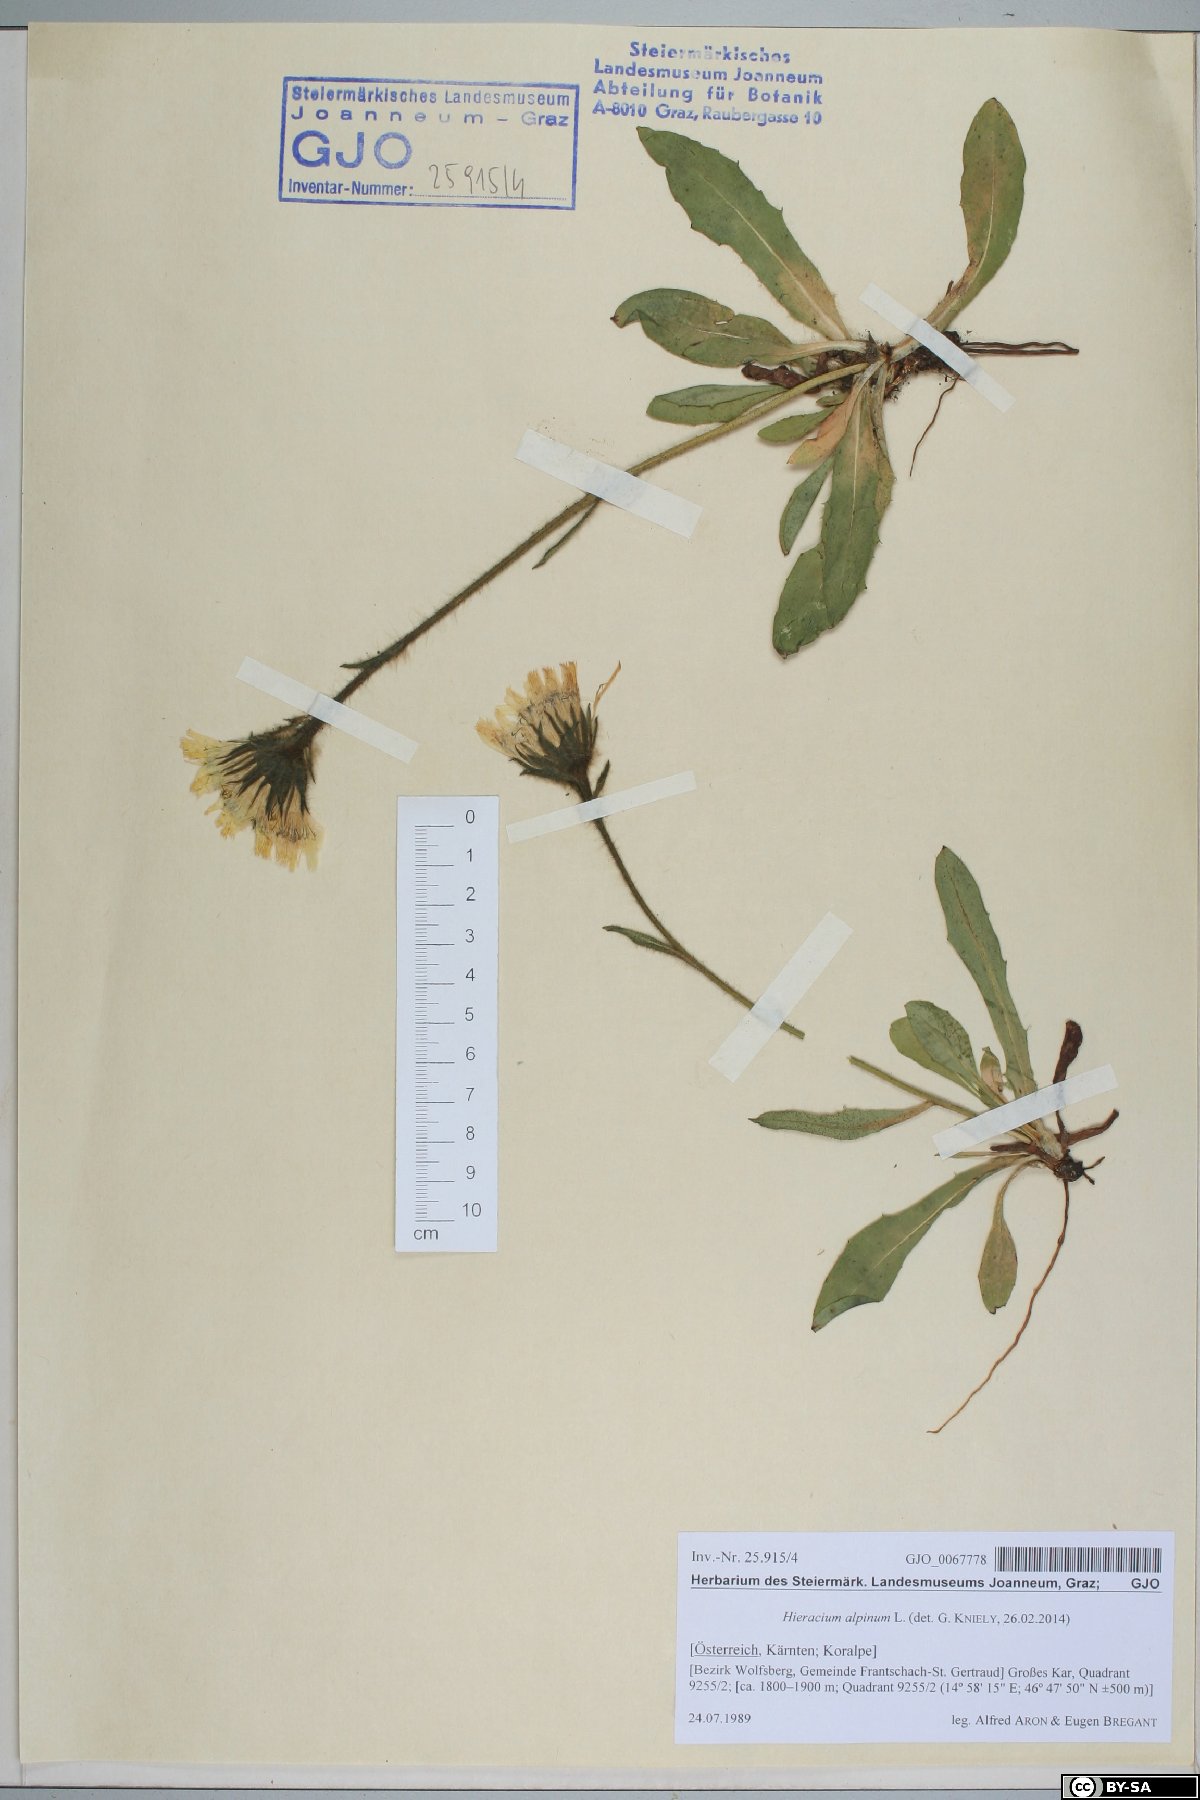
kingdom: Plantae
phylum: Tracheophyta
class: Magnoliopsida
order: Asterales
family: Asteraceae
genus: Hieracium
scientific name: Hieracium alpinum
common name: Alpine hawkweed
